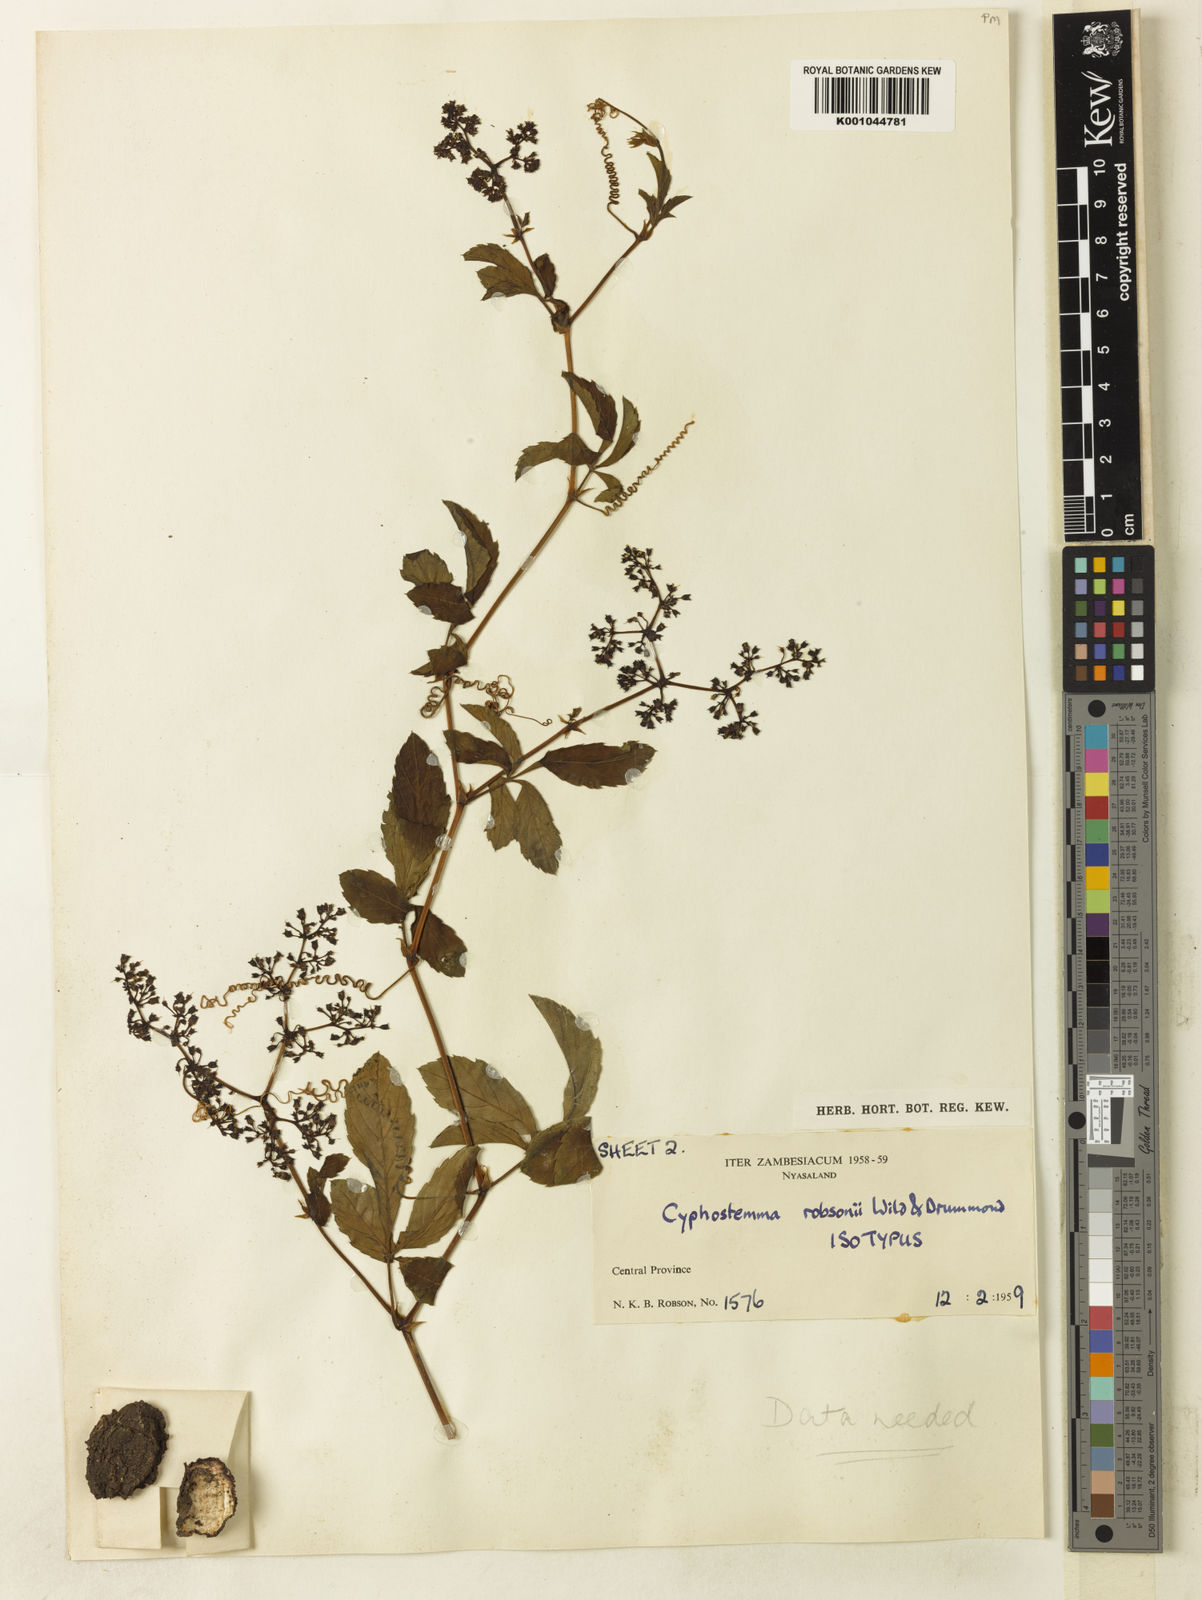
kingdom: Plantae
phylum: Tracheophyta
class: Magnoliopsida
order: Vitales
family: Vitaceae
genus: Cyphostemma
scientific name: Cyphostemma robsonii
